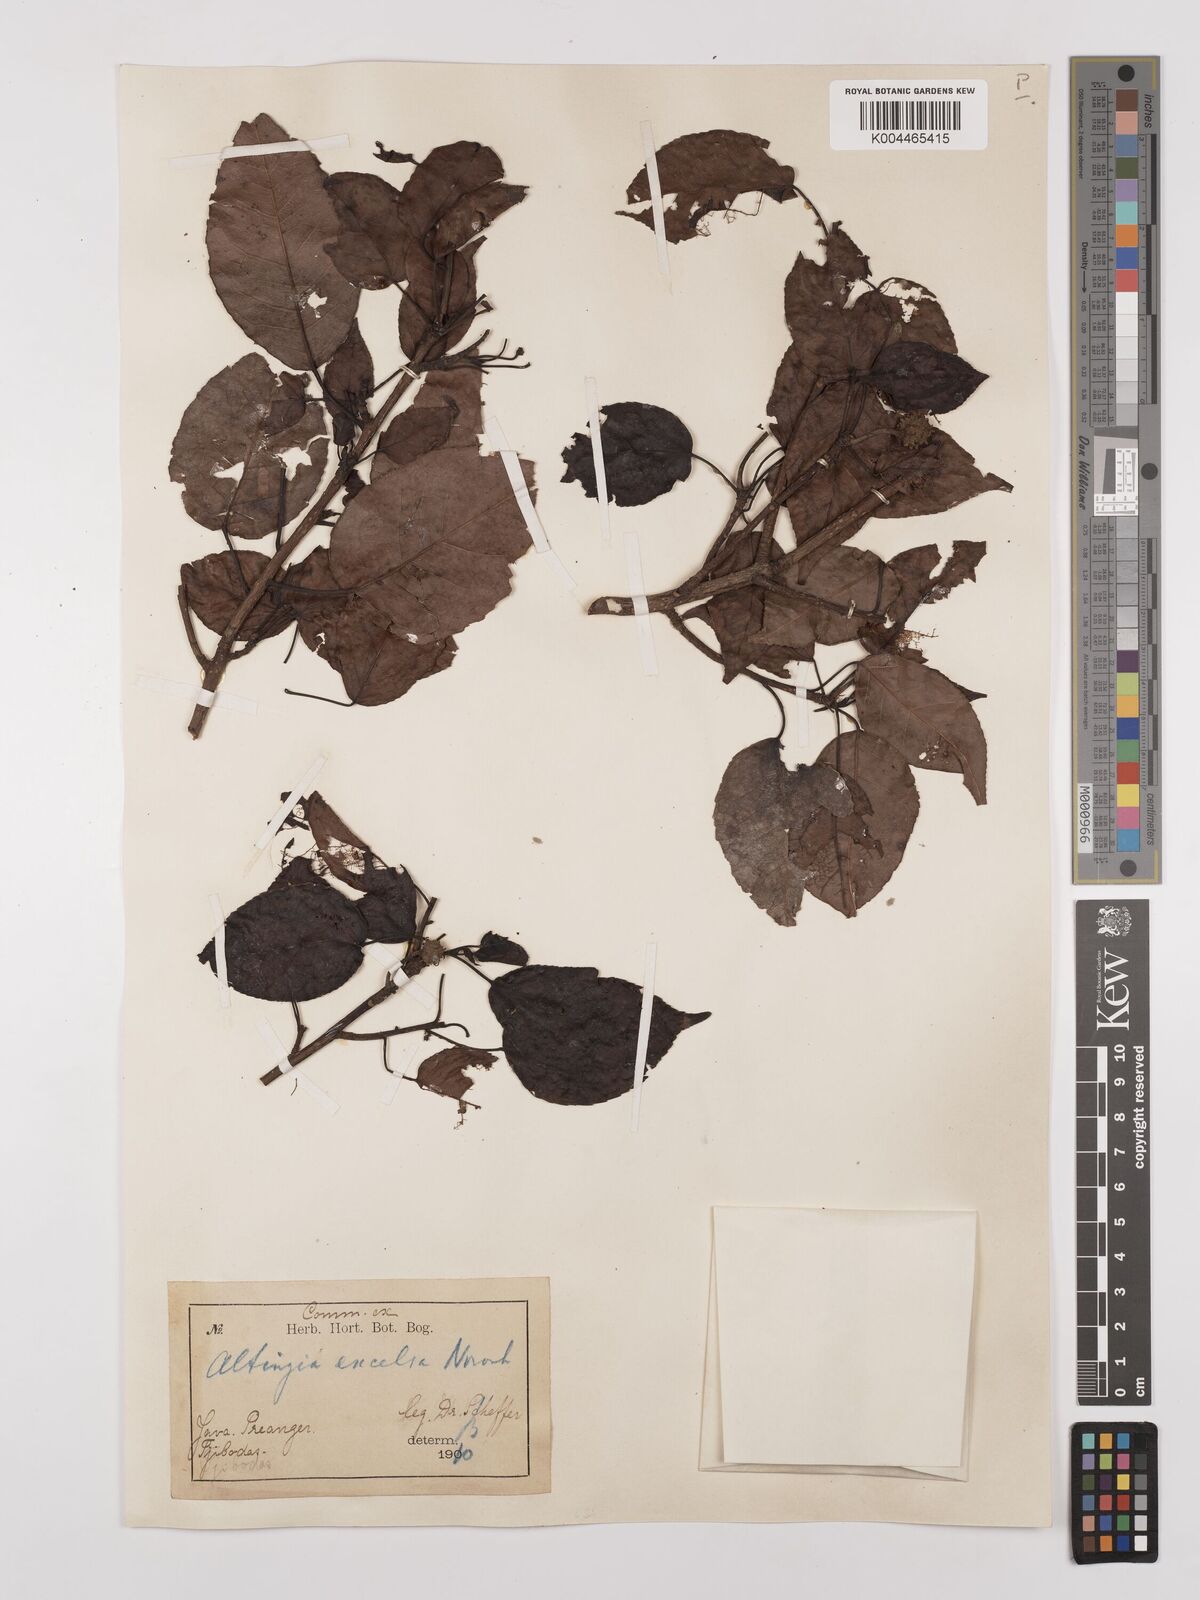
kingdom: Plantae
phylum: Tracheophyta
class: Magnoliopsida
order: Saxifragales
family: Altingiaceae
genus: Liquidambar
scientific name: Liquidambar excelsa
